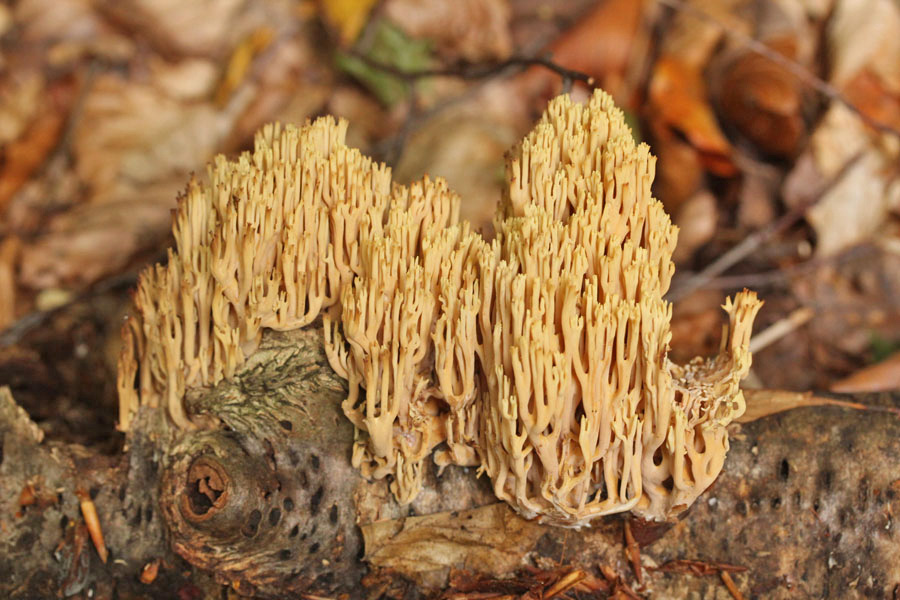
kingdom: Fungi
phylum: Basidiomycota
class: Agaricomycetes
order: Gomphales
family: Gomphaceae
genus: Ramaria
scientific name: Ramaria stricta
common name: rank koralsvamp
